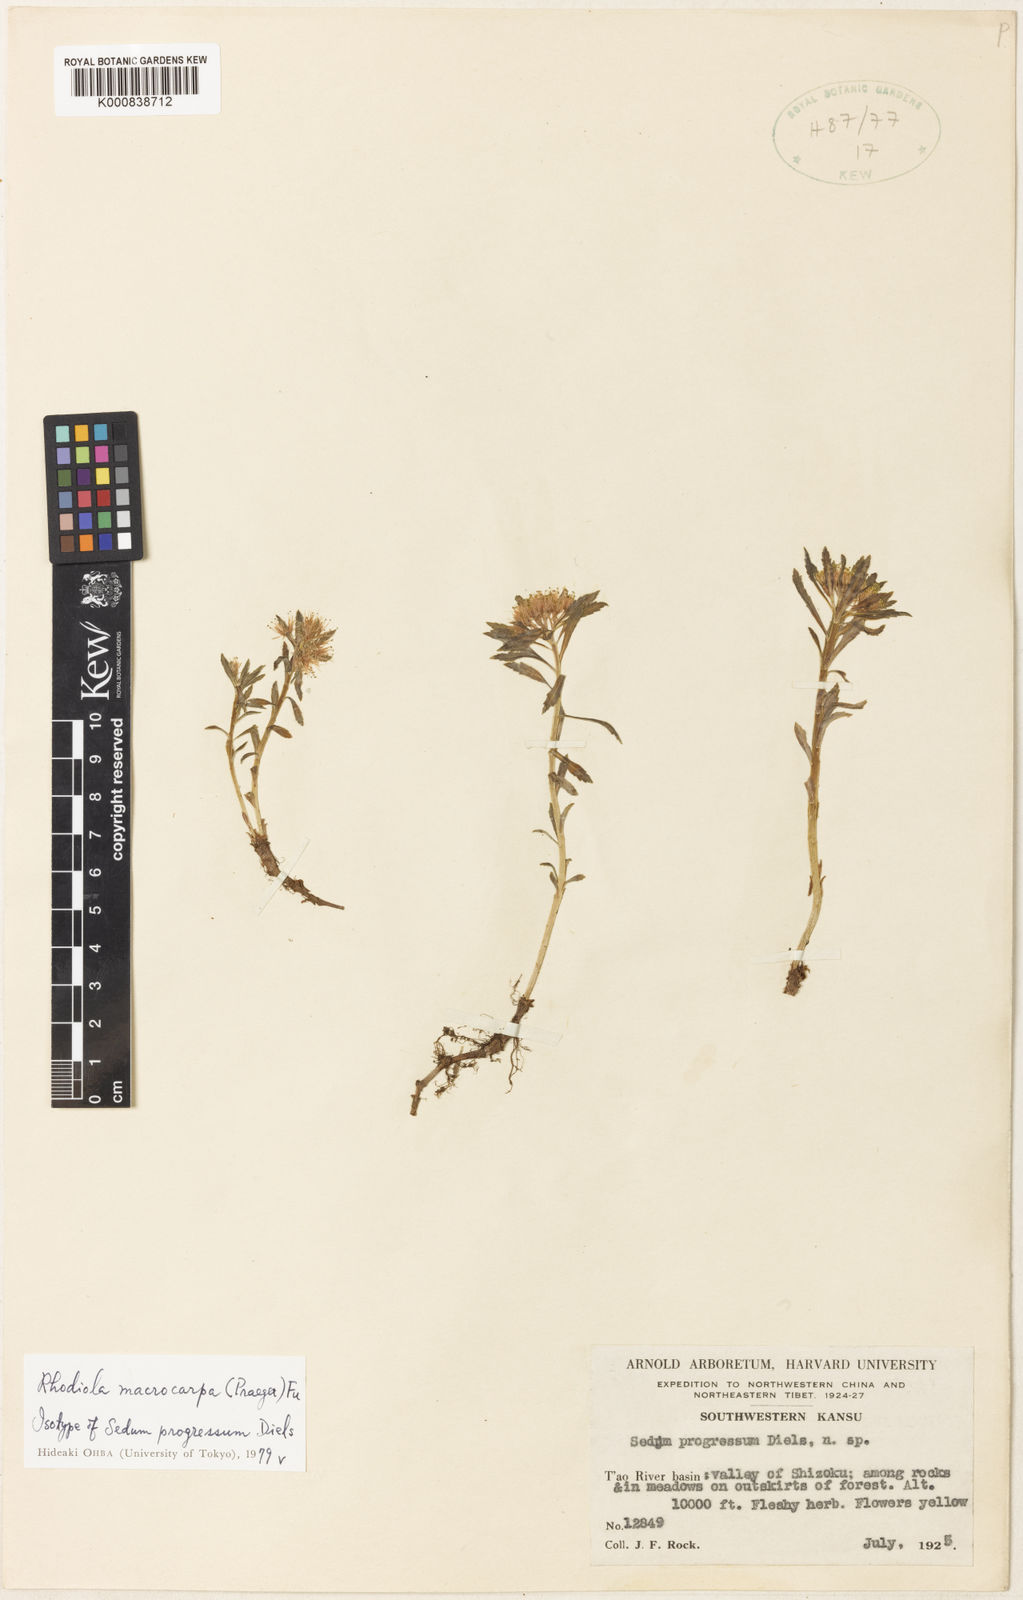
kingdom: Plantae
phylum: Tracheophyta
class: Magnoliopsida
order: Saxifragales
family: Crassulaceae
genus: Rhodiola
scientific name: Rhodiola macrocarpa
